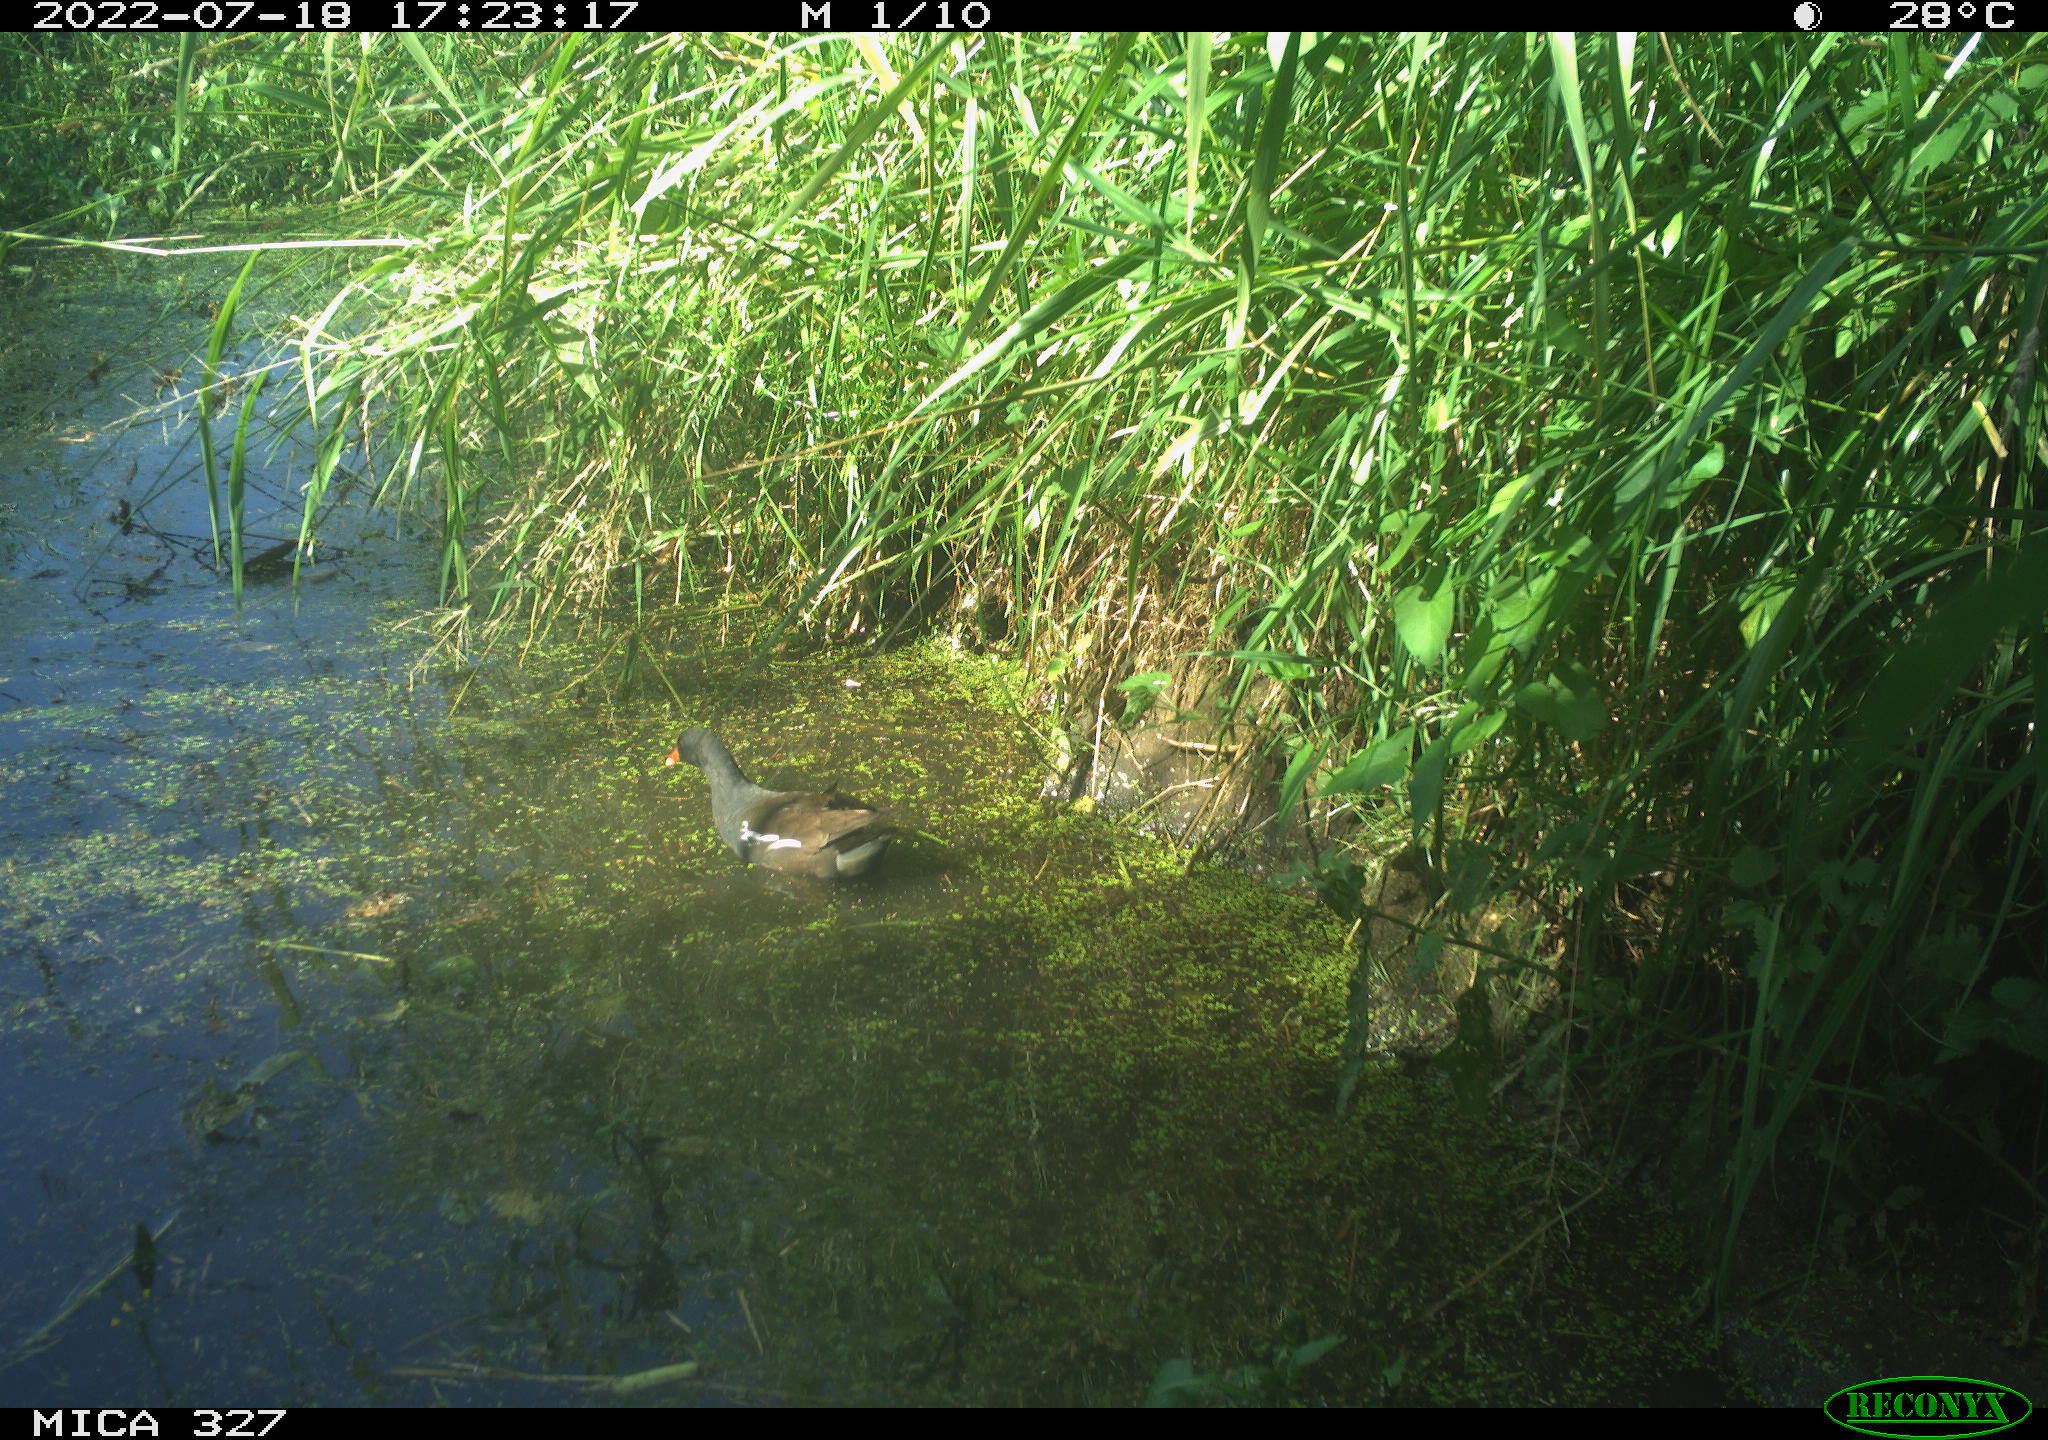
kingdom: Animalia
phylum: Chordata
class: Aves
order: Gruiformes
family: Rallidae
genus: Gallinula
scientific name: Gallinula chloropus
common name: Common moorhen
